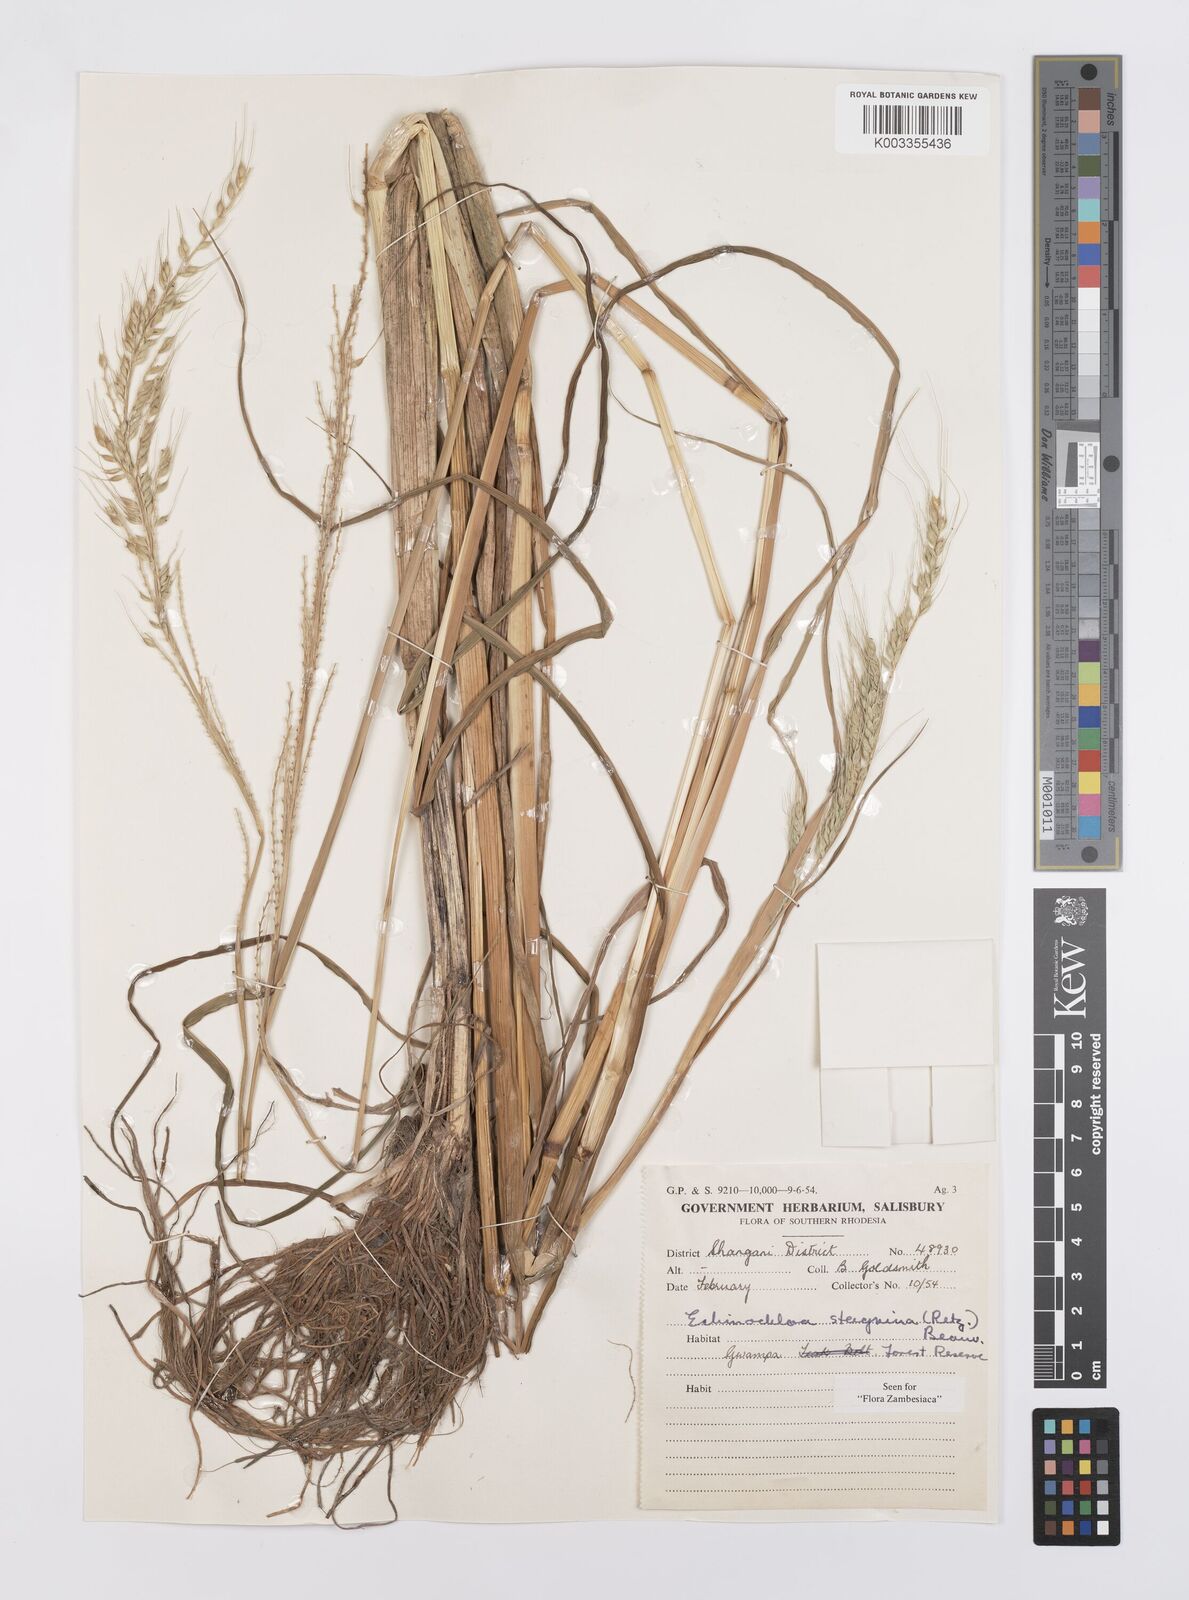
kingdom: Plantae
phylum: Tracheophyta
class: Liliopsida
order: Poales
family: Poaceae
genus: Echinochloa
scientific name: Echinochloa stagnina
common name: Burgu grass
